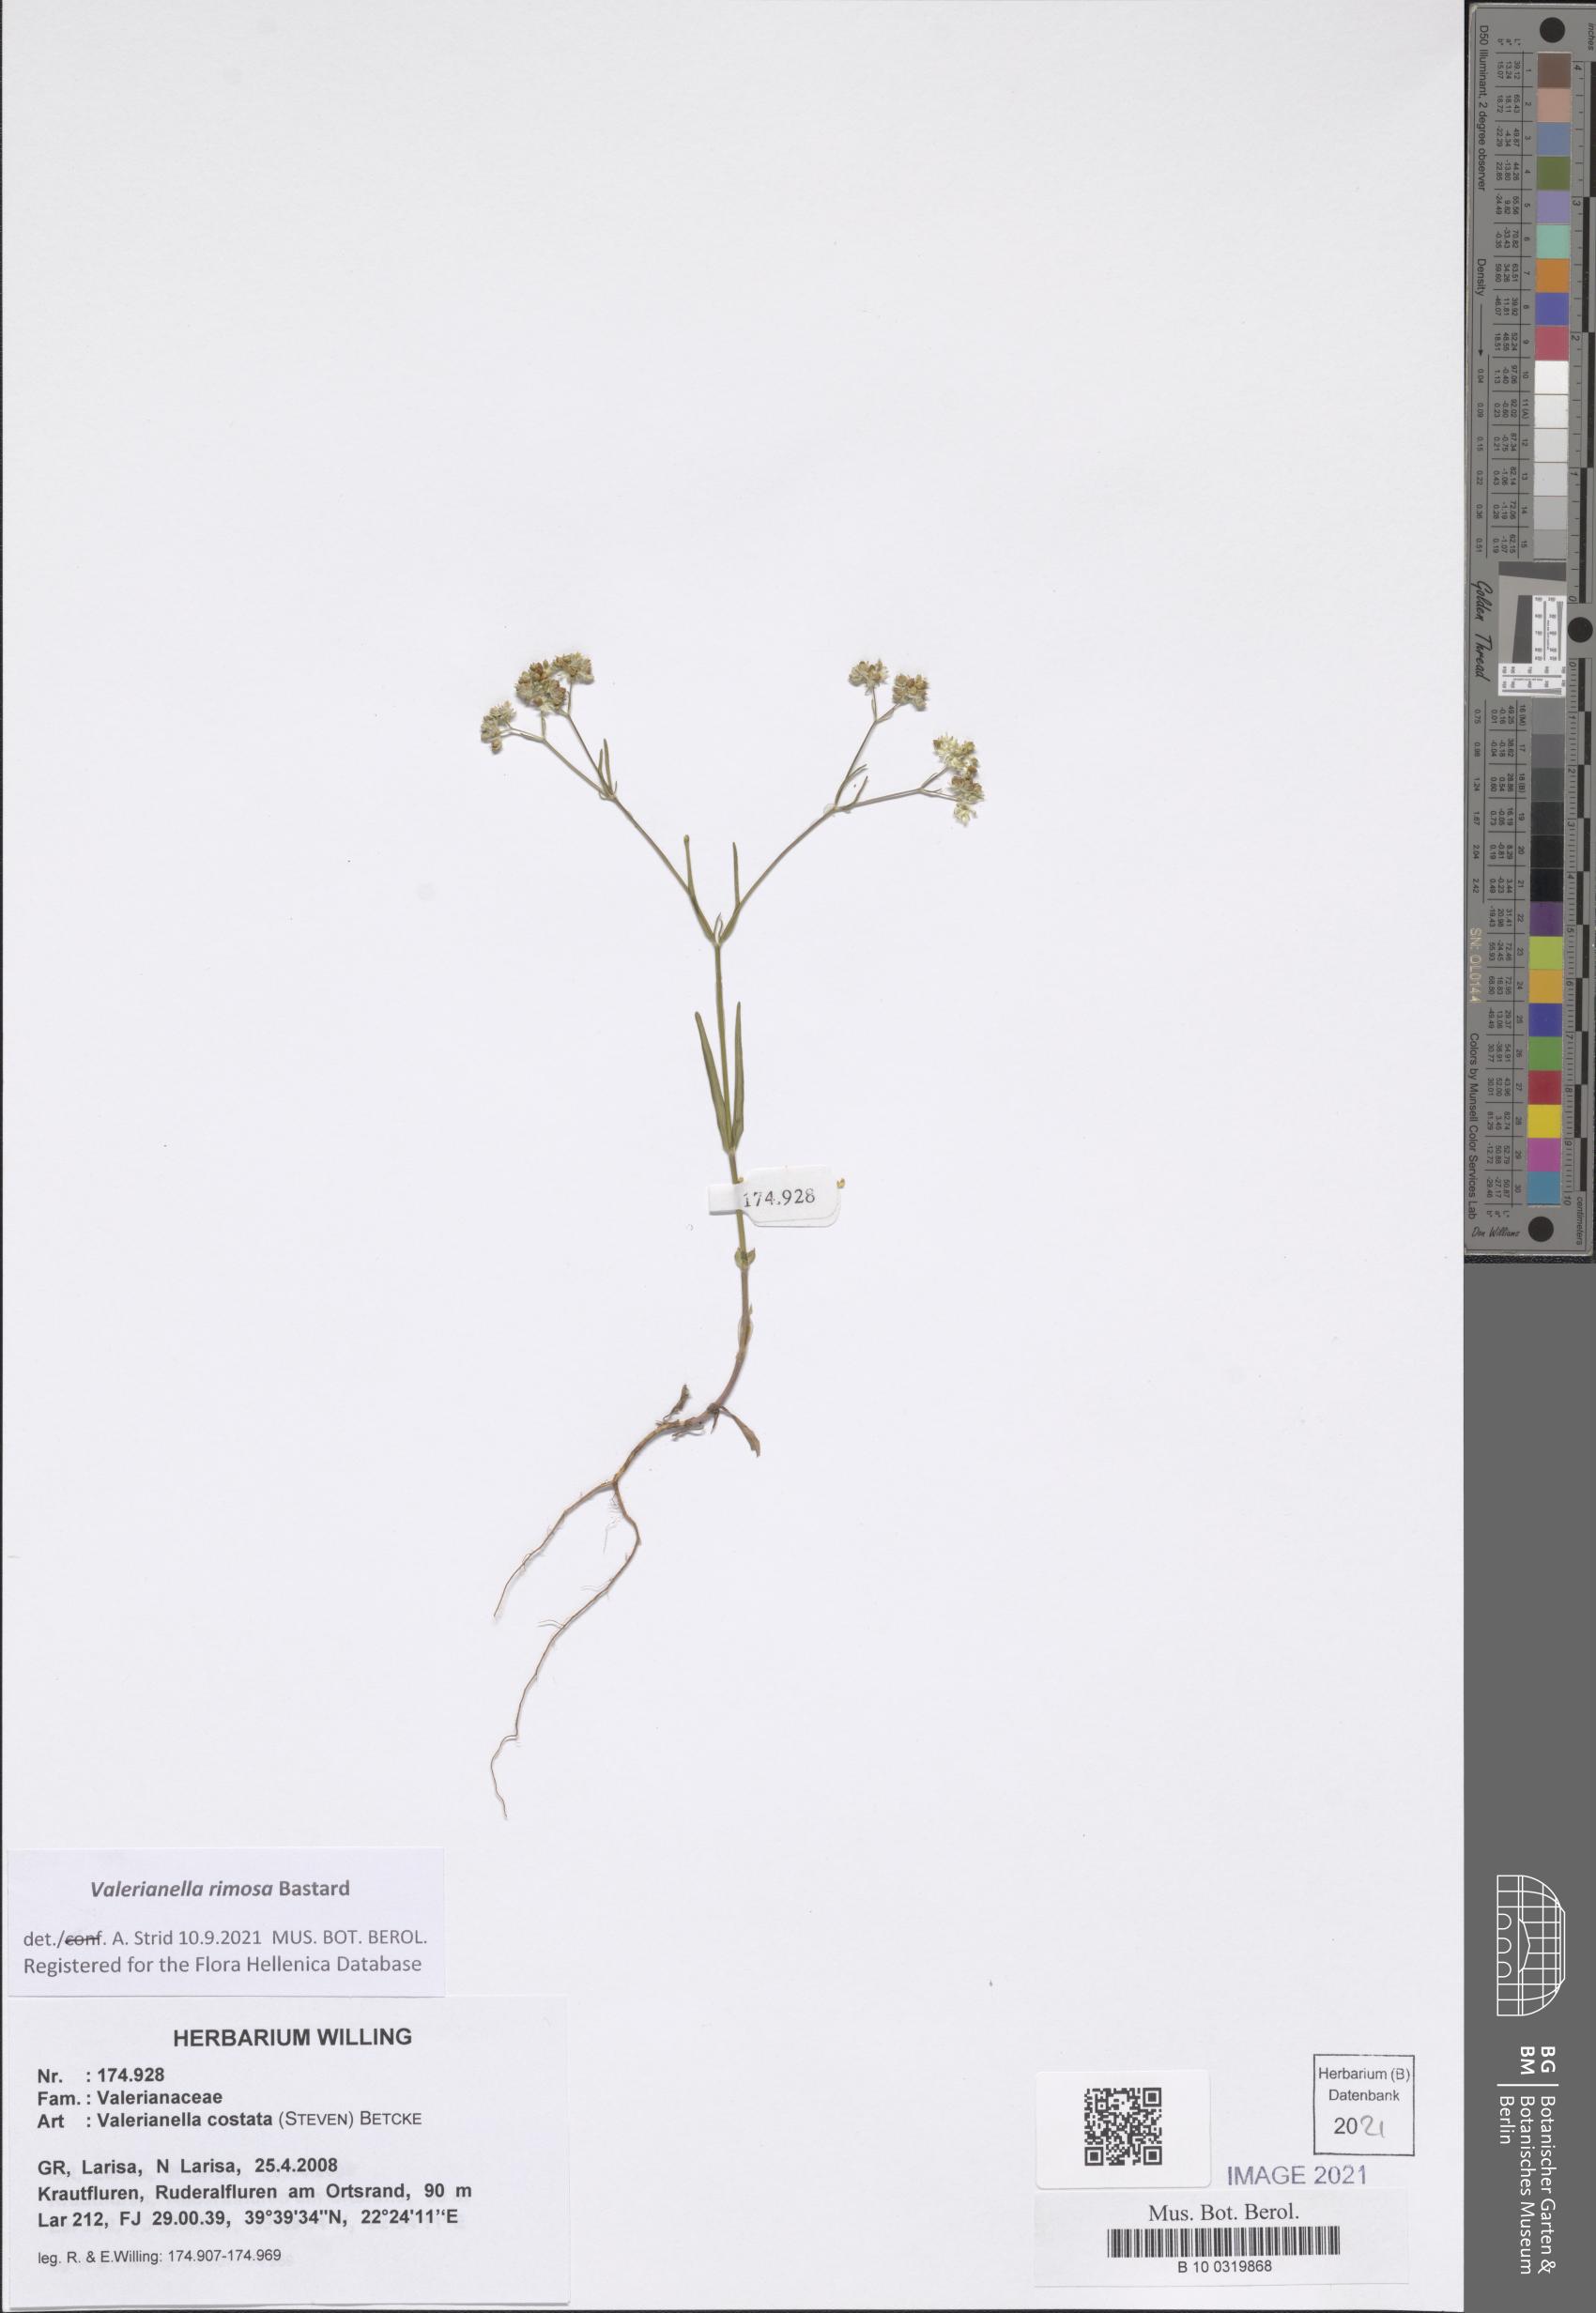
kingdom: Plantae
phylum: Tracheophyta
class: Magnoliopsida
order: Dipsacales
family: Caprifoliaceae
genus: Valerianella
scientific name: Valerianella rimosa
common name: Broad-fruited cornsalad
